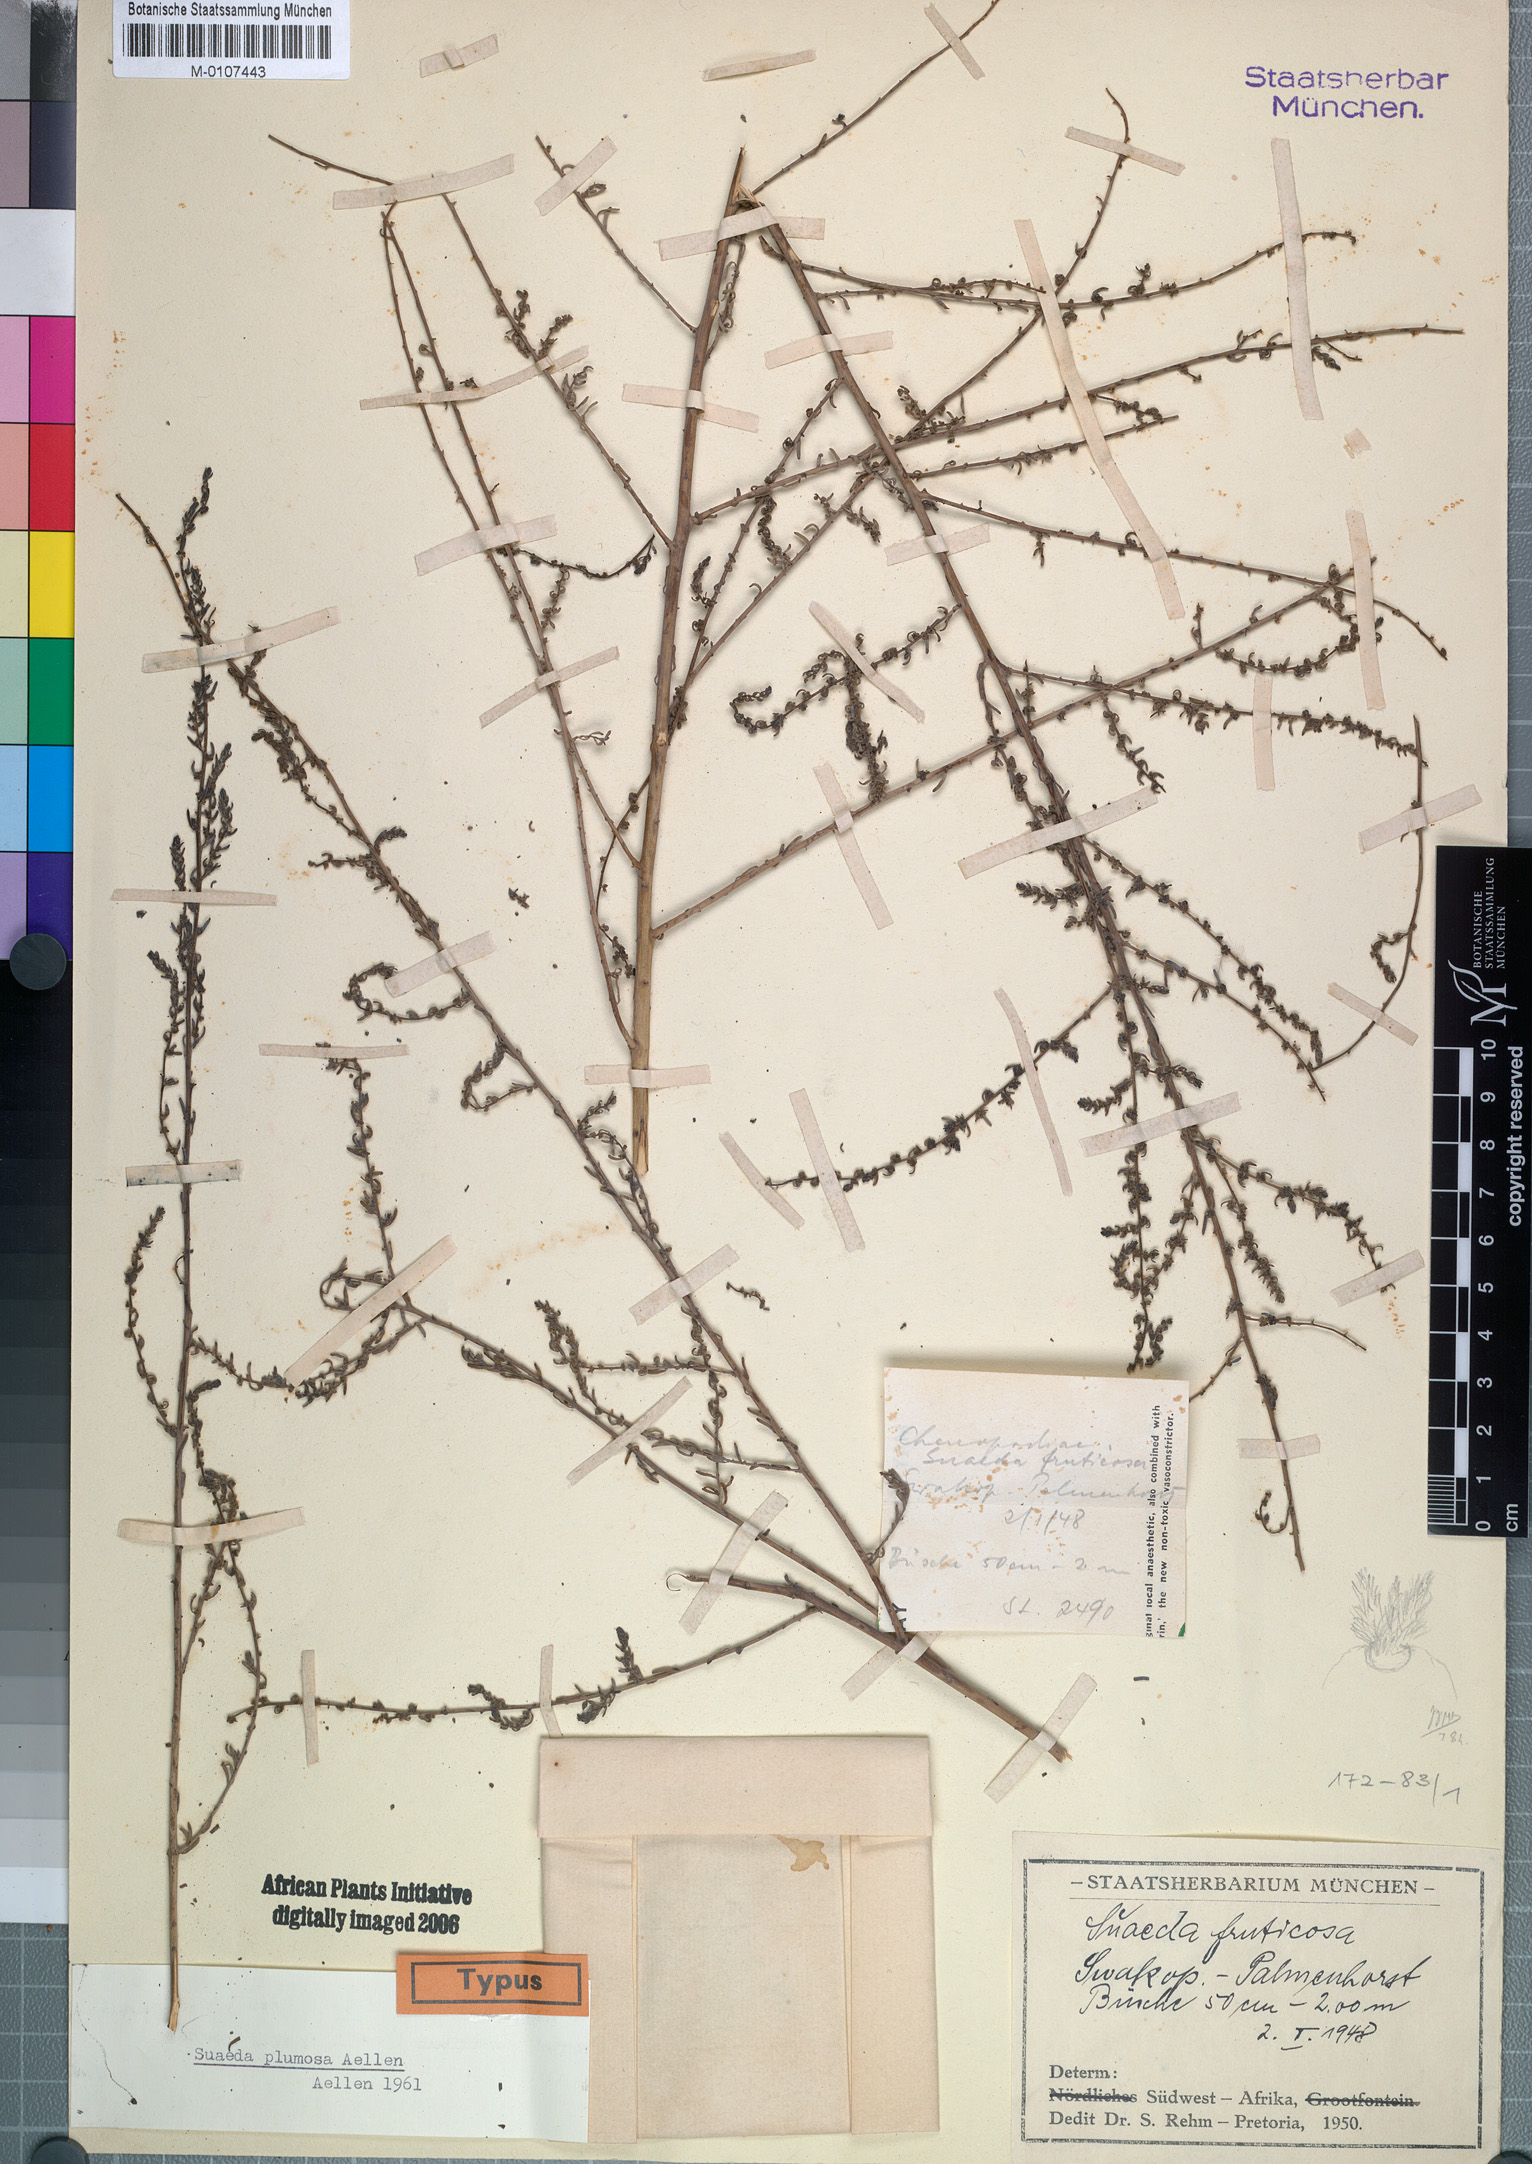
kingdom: Plantae
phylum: Tracheophyta
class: Magnoliopsida
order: Caryophyllales
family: Amaranthaceae
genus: Suaeda
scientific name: Suaeda plumosa
